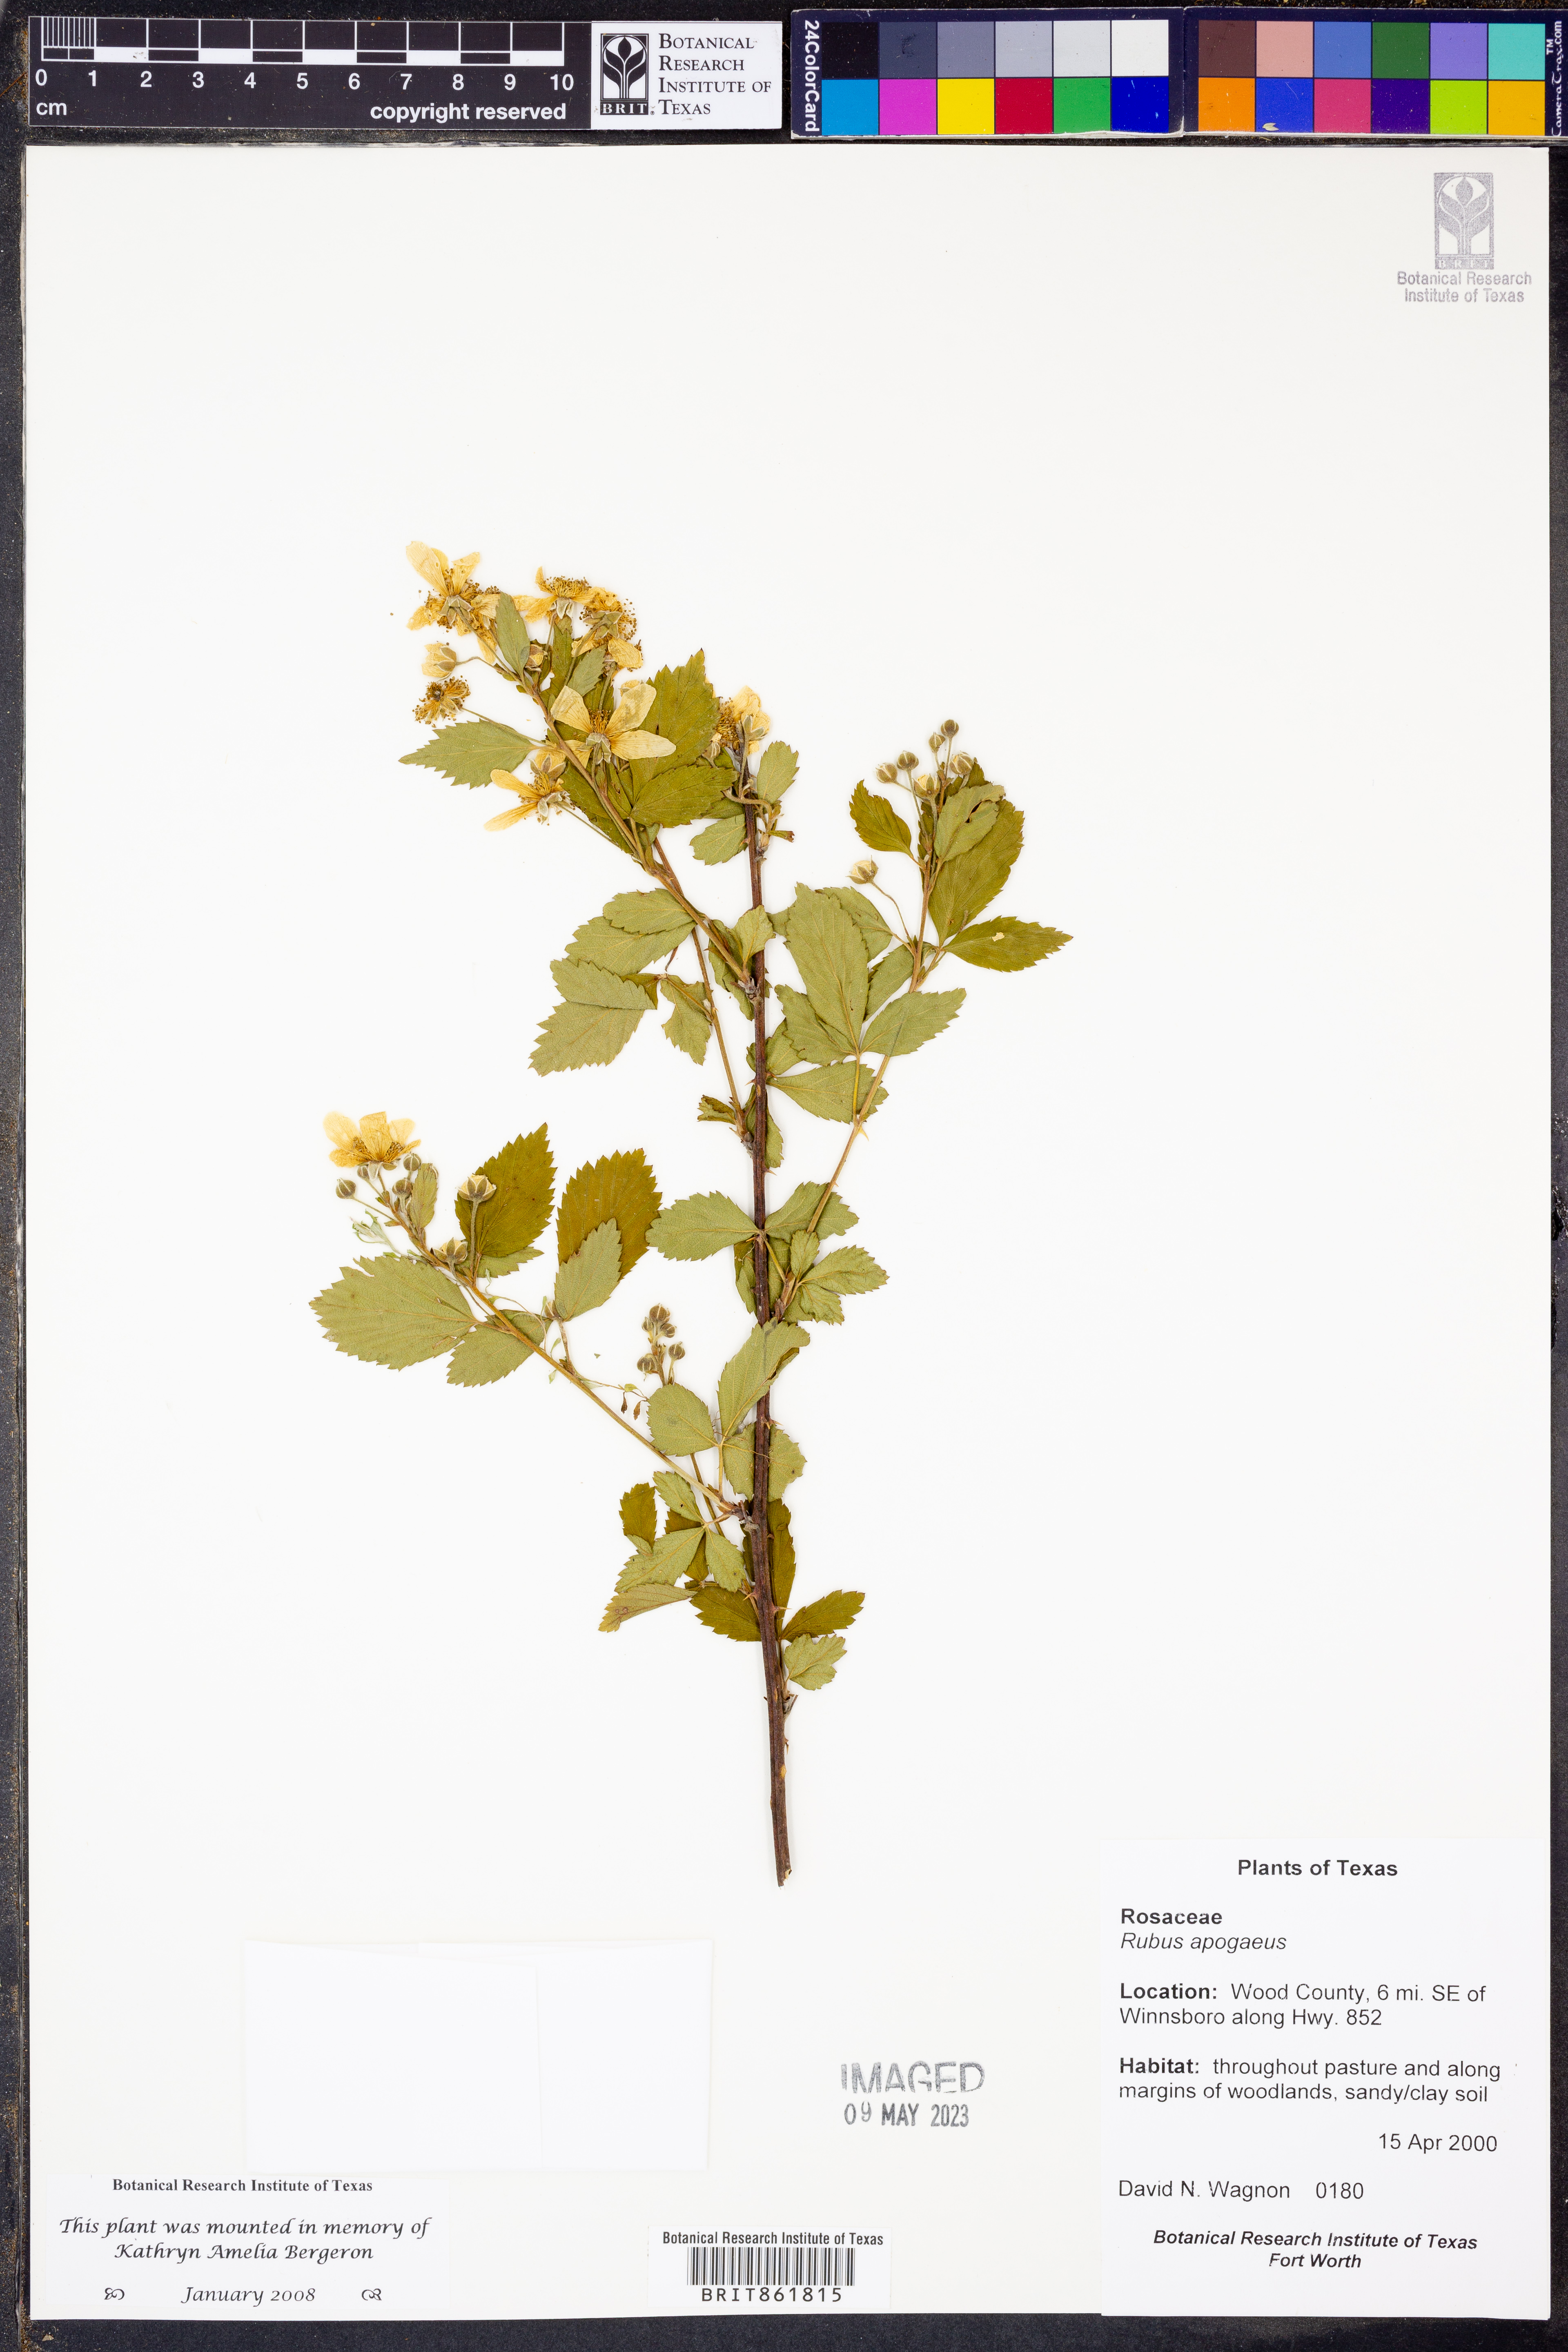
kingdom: Plantae
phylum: Tracheophyta
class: Magnoliopsida
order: Rosales
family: Rosaceae
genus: Rubus
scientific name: Rubus apogaeus
